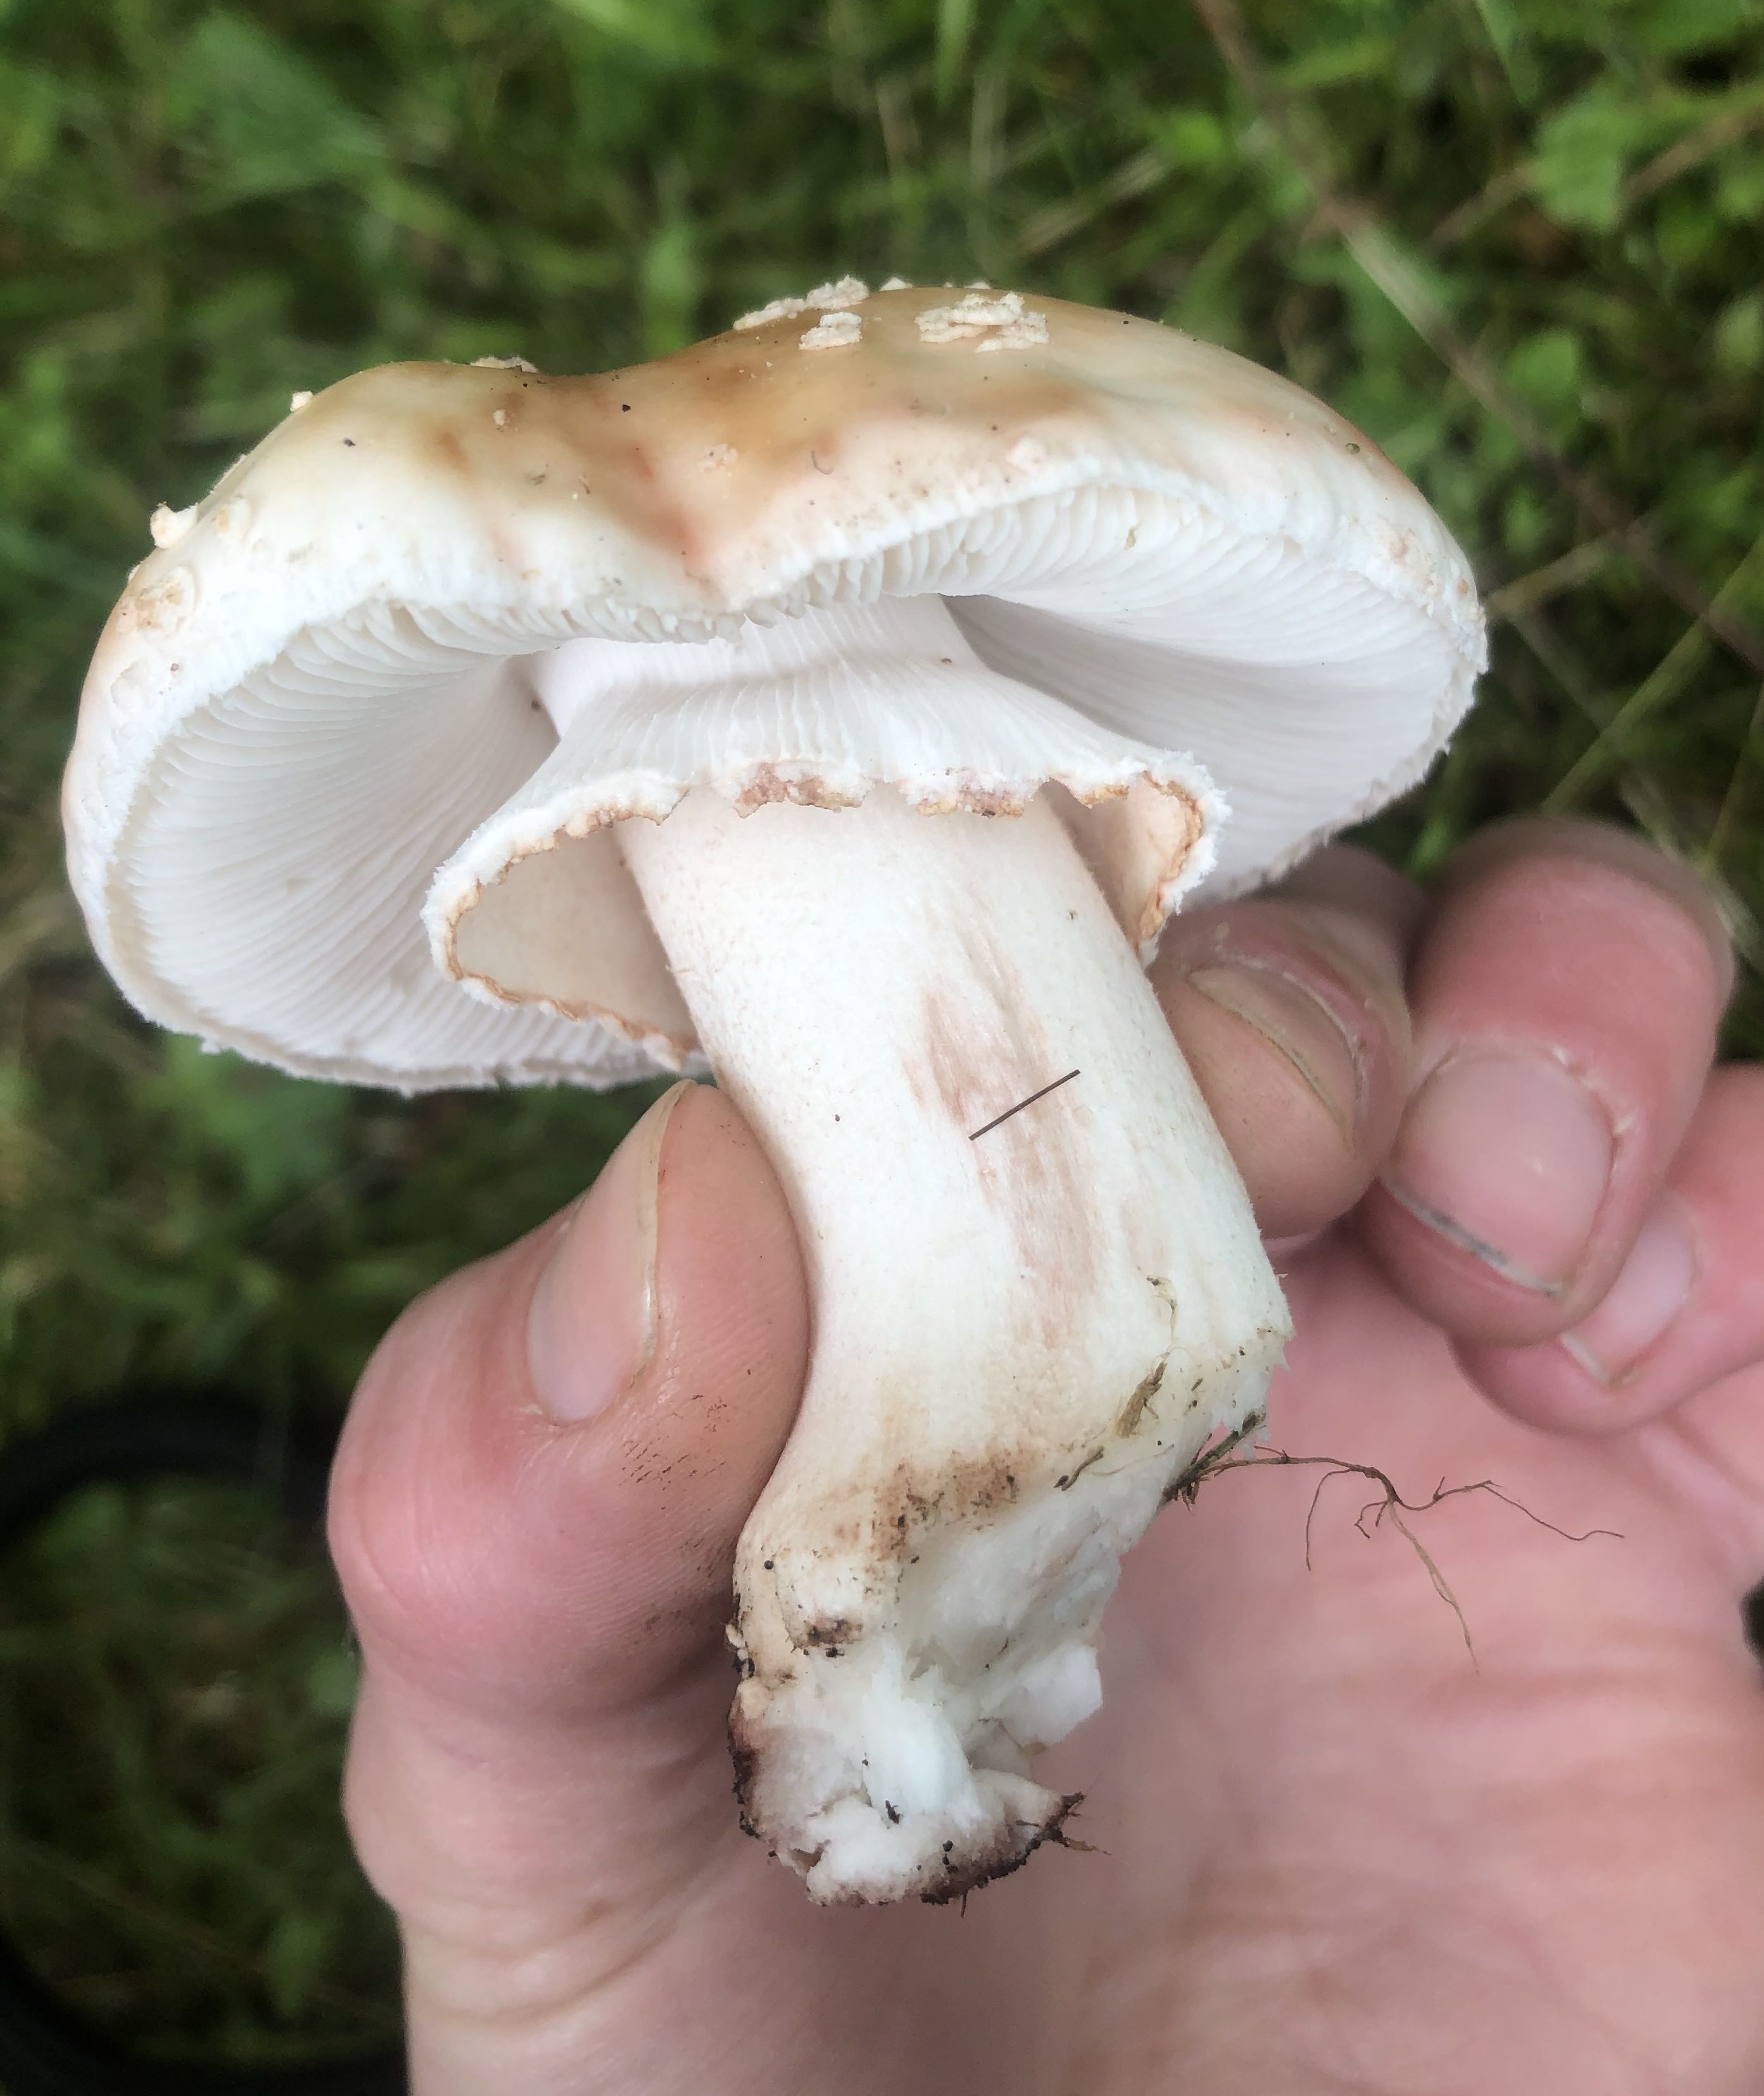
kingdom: Fungi
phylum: Basidiomycota
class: Agaricomycetes
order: Agaricales
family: Amanitaceae
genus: Amanita
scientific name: Amanita rubescens
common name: rødmende fluesvamp
